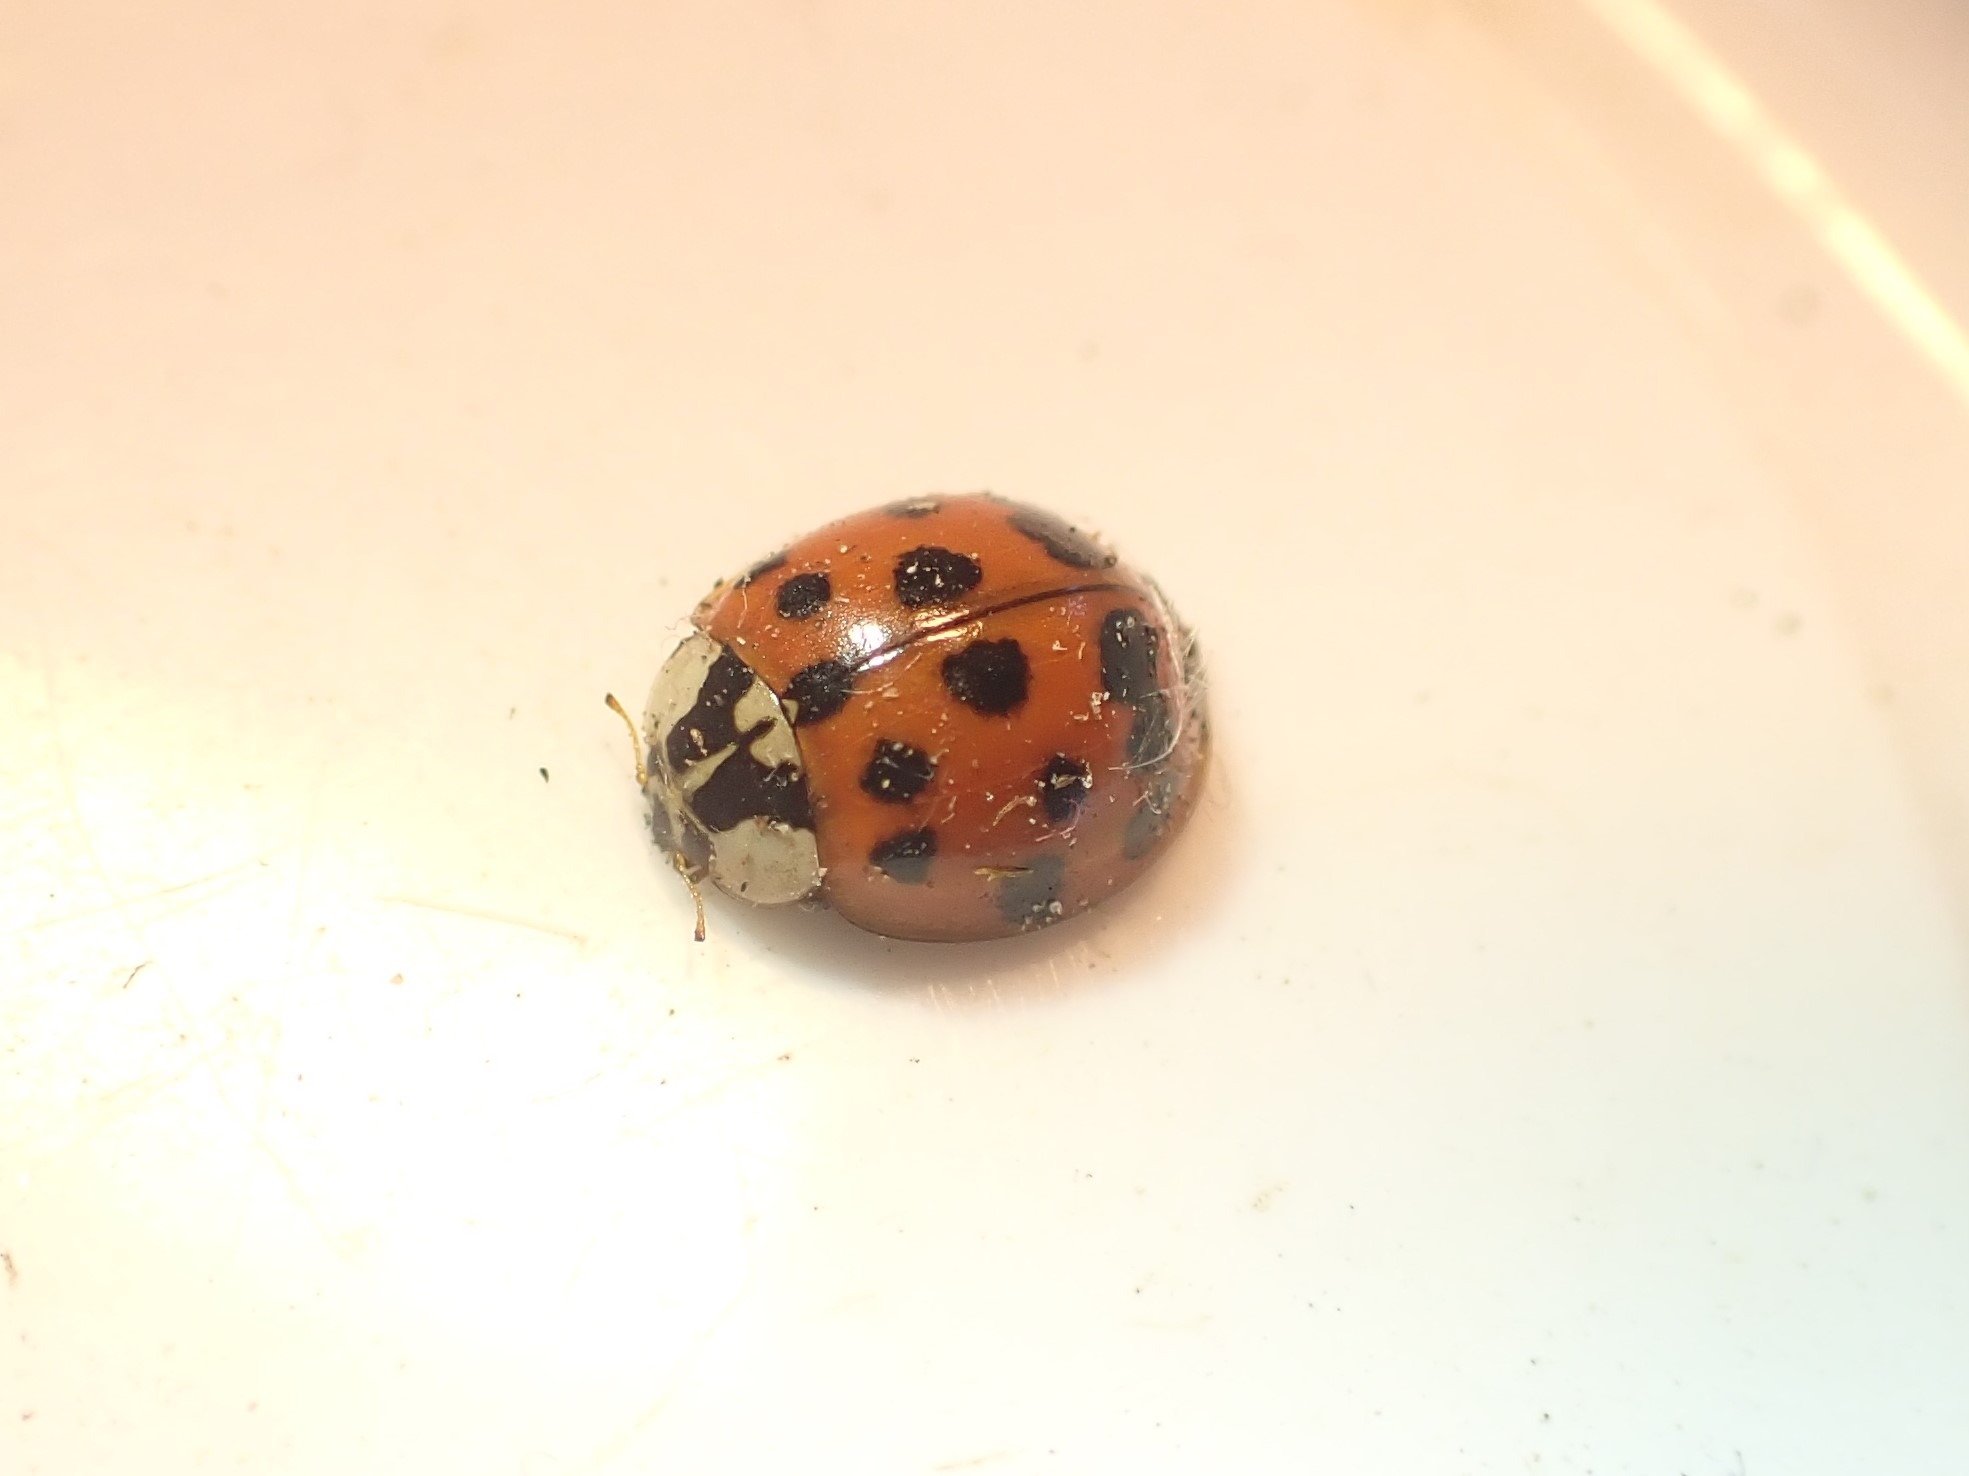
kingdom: Animalia
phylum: Arthropoda
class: Insecta
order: Coleoptera
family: Coccinellidae
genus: Harmonia
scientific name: Harmonia axyridis
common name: Harlekinmariehøne
